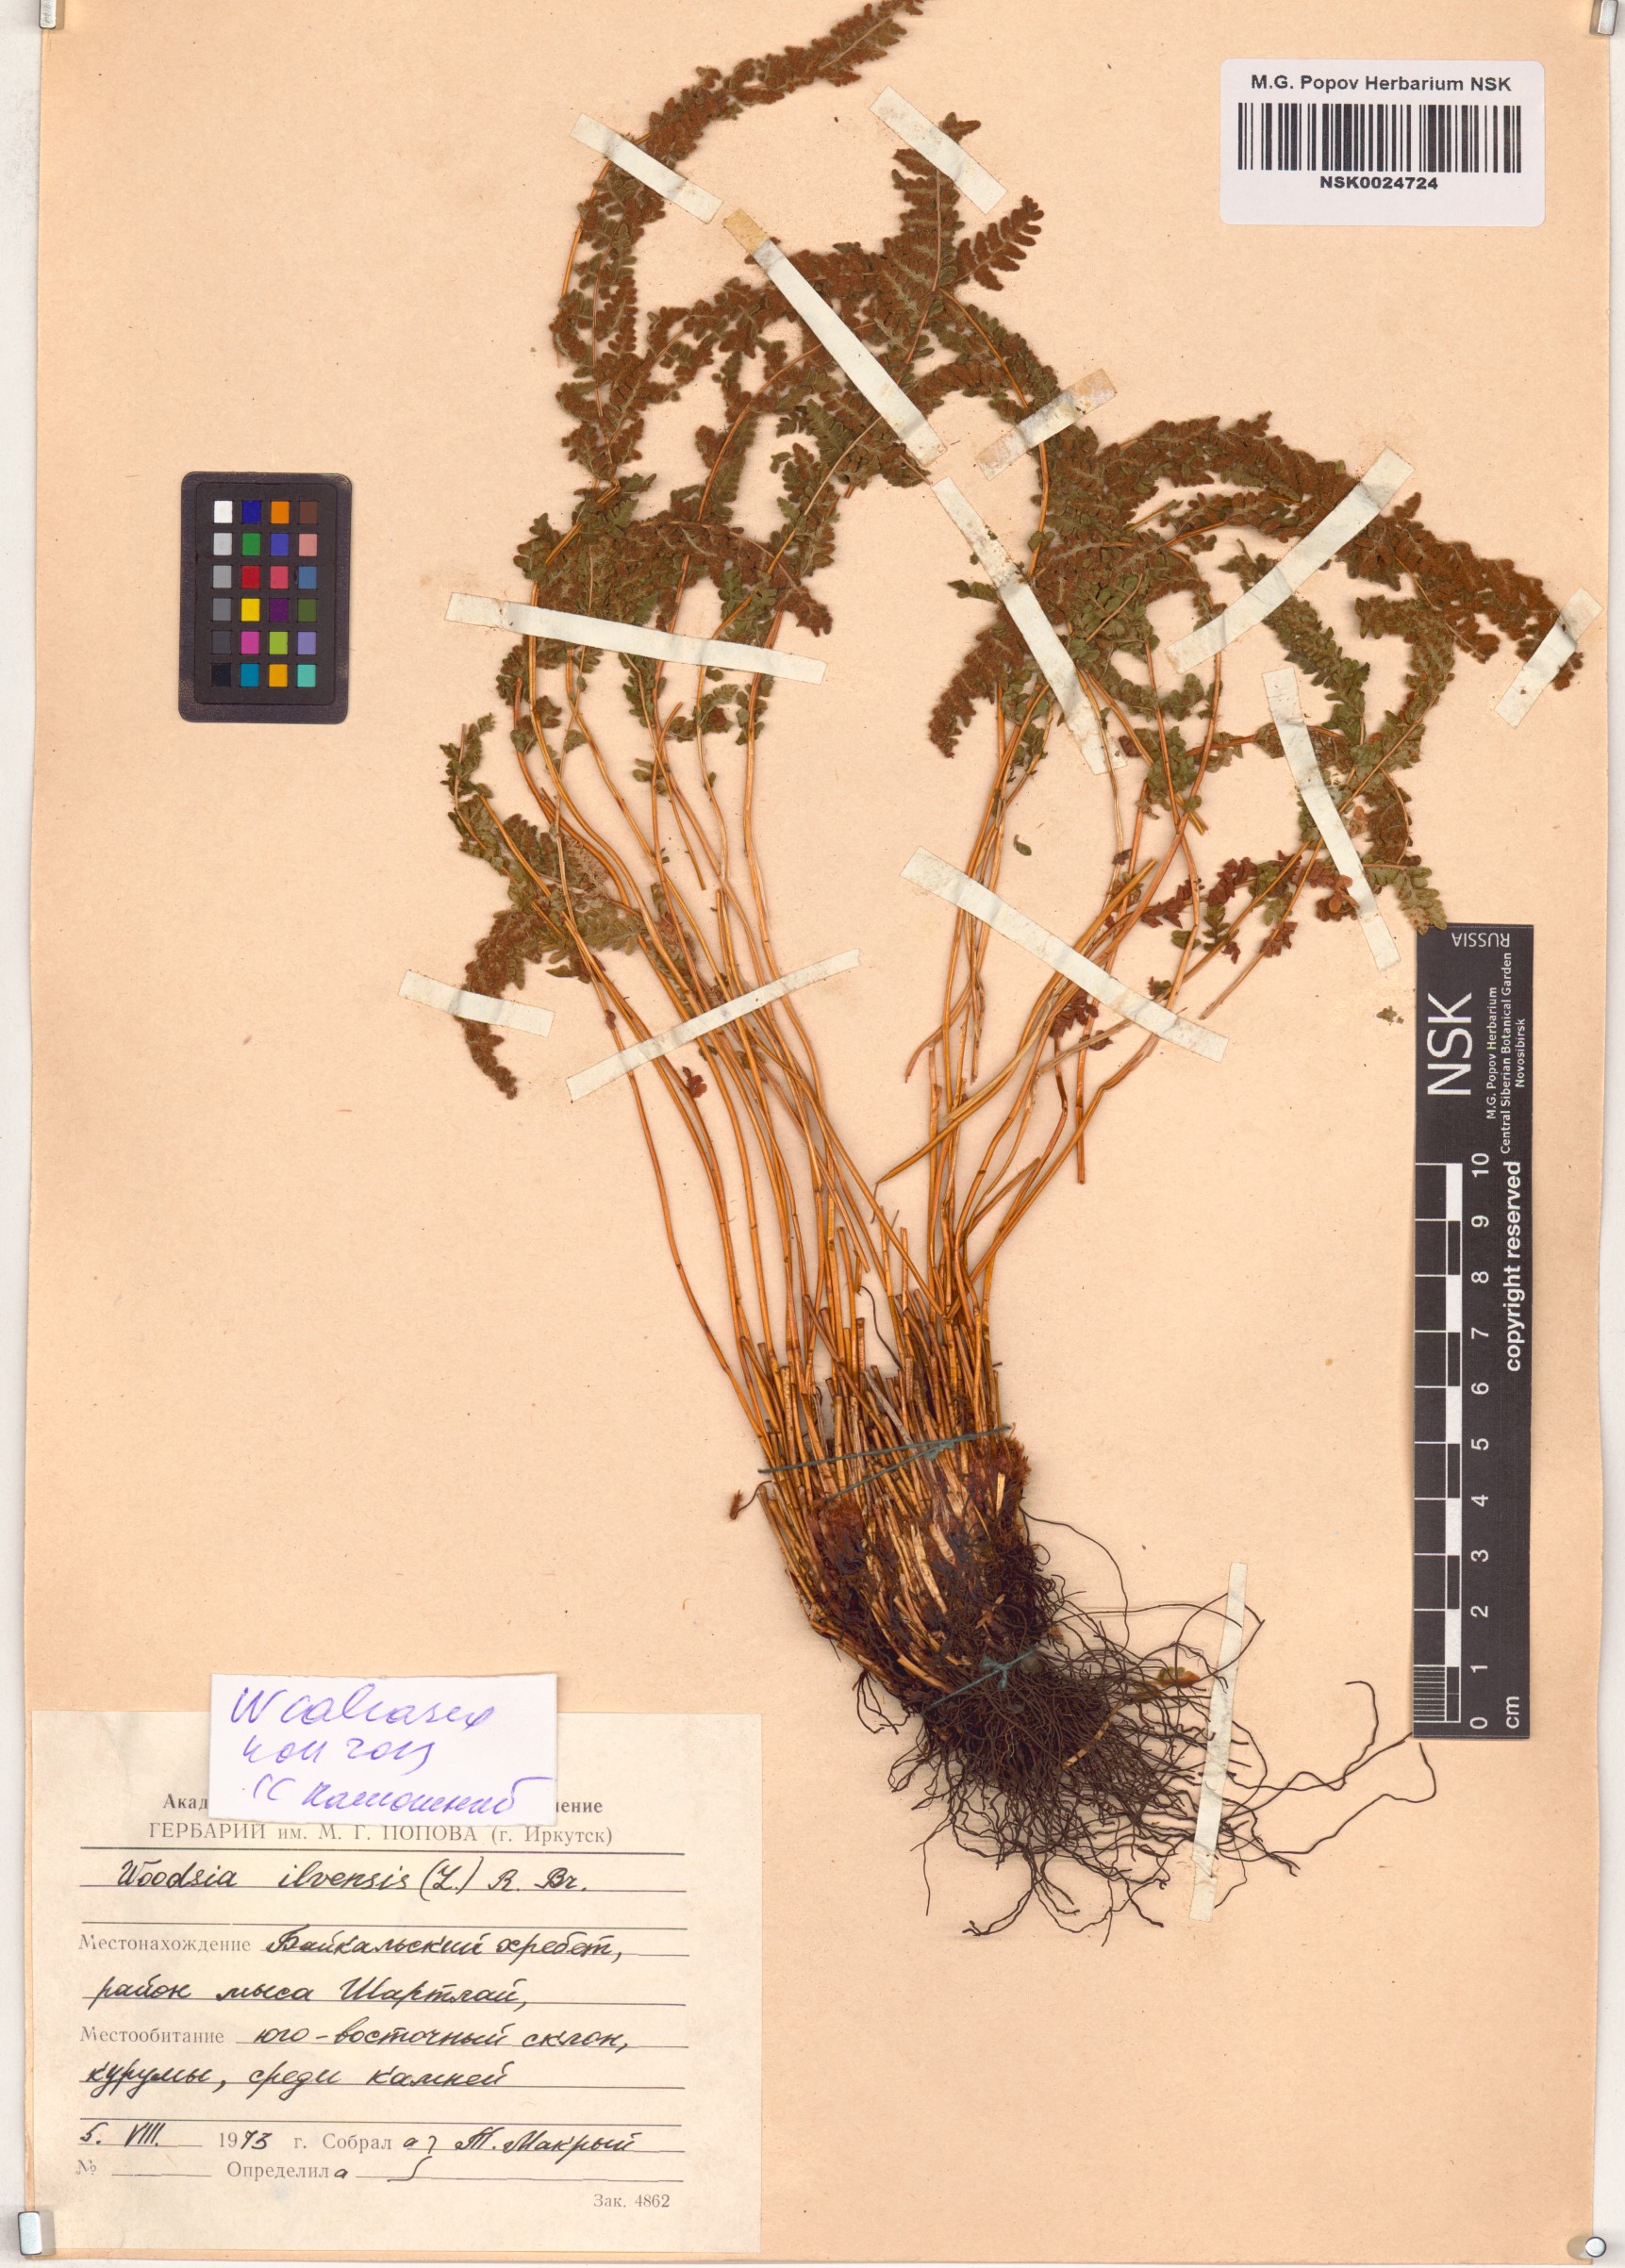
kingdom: Plantae
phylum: Tracheophyta
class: Polypodiopsida
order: Polypodiales
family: Woodsiaceae
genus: Woodsia
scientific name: Woodsia calcarea
